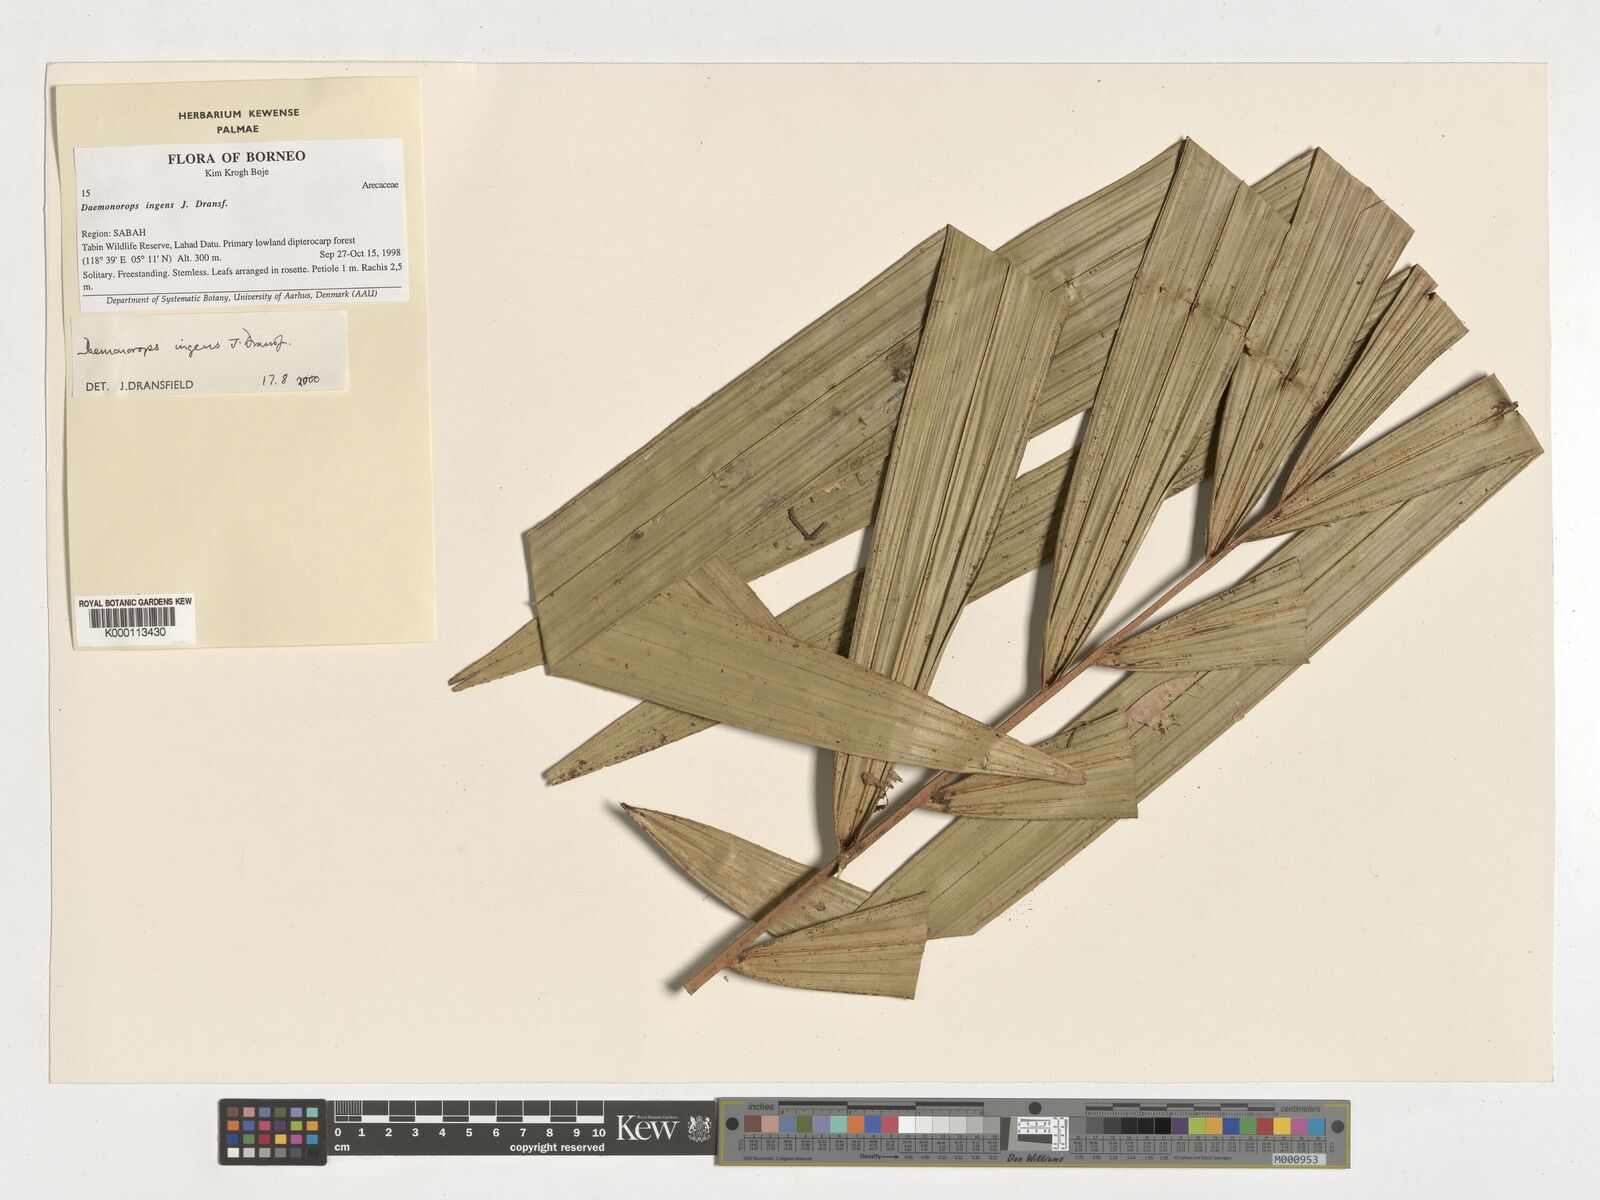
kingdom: Plantae
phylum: Tracheophyta
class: Liliopsida
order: Arecales
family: Arecaceae
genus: Calamus
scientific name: Calamus ingens
